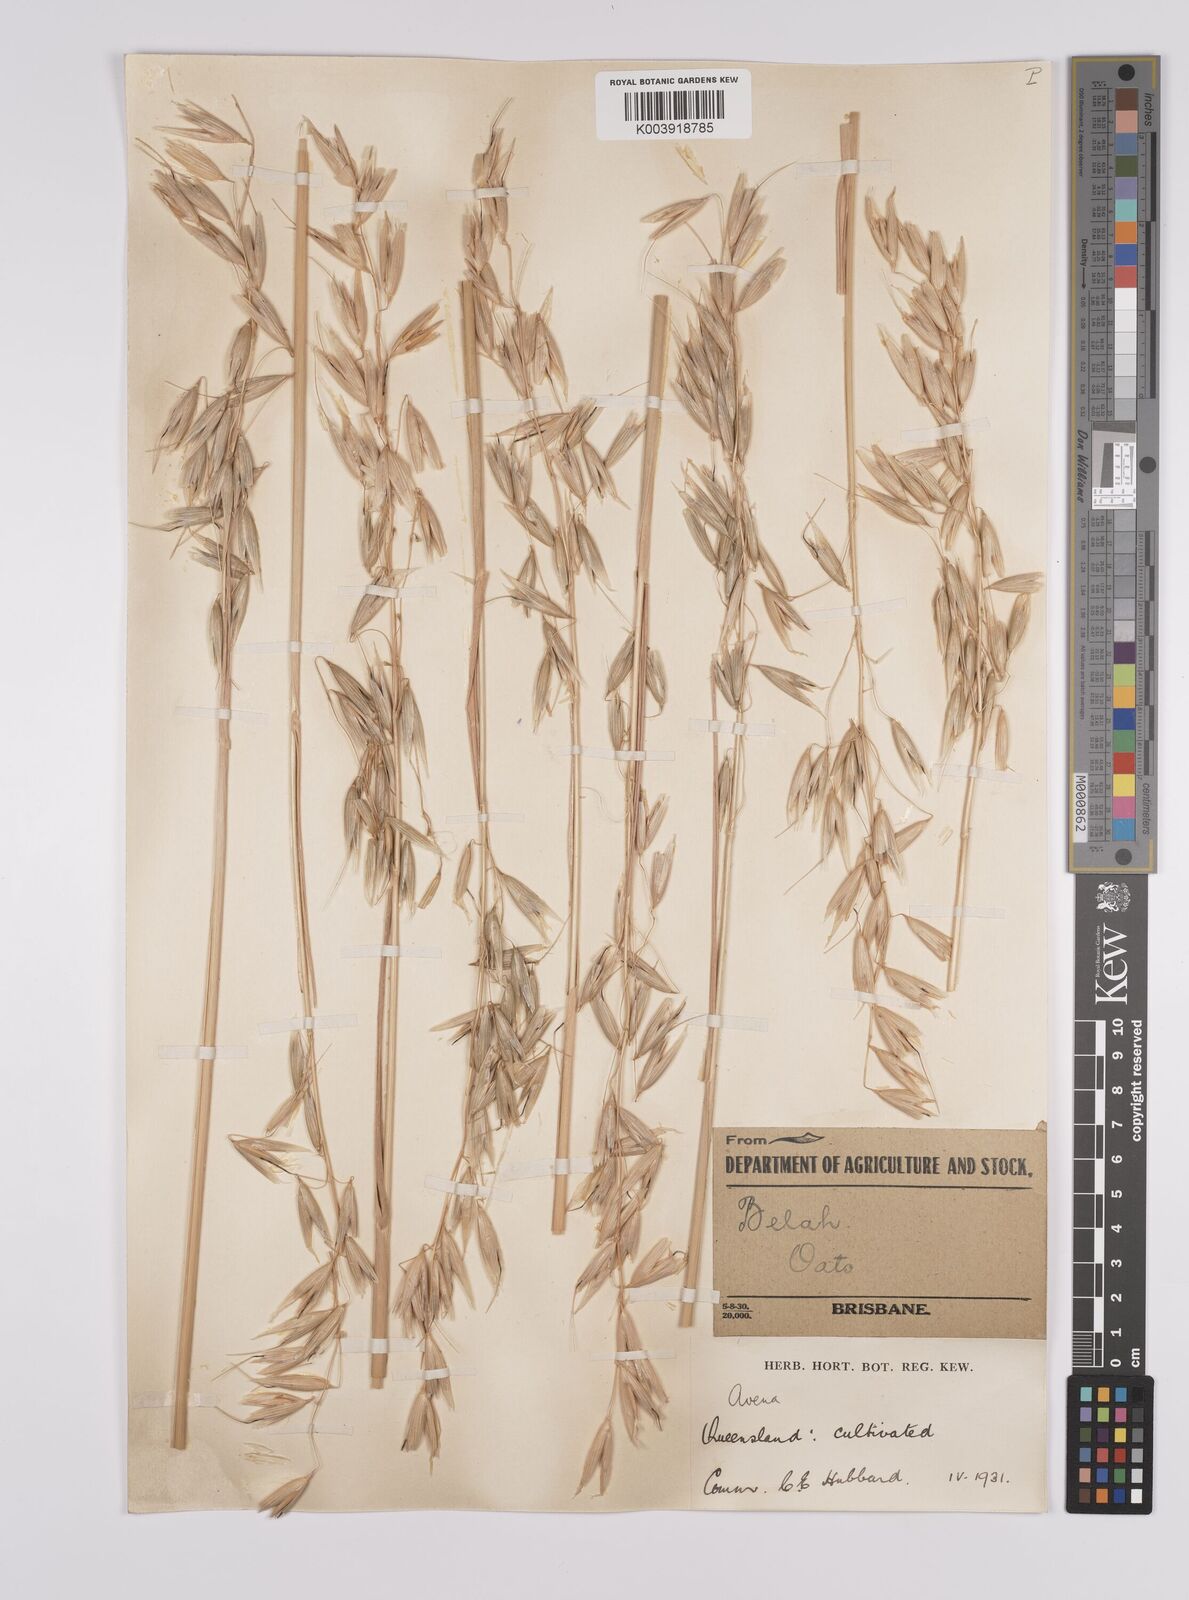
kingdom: Plantae
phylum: Tracheophyta
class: Liliopsida
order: Poales
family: Poaceae
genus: Avena
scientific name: Avena sativa
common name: Oat
